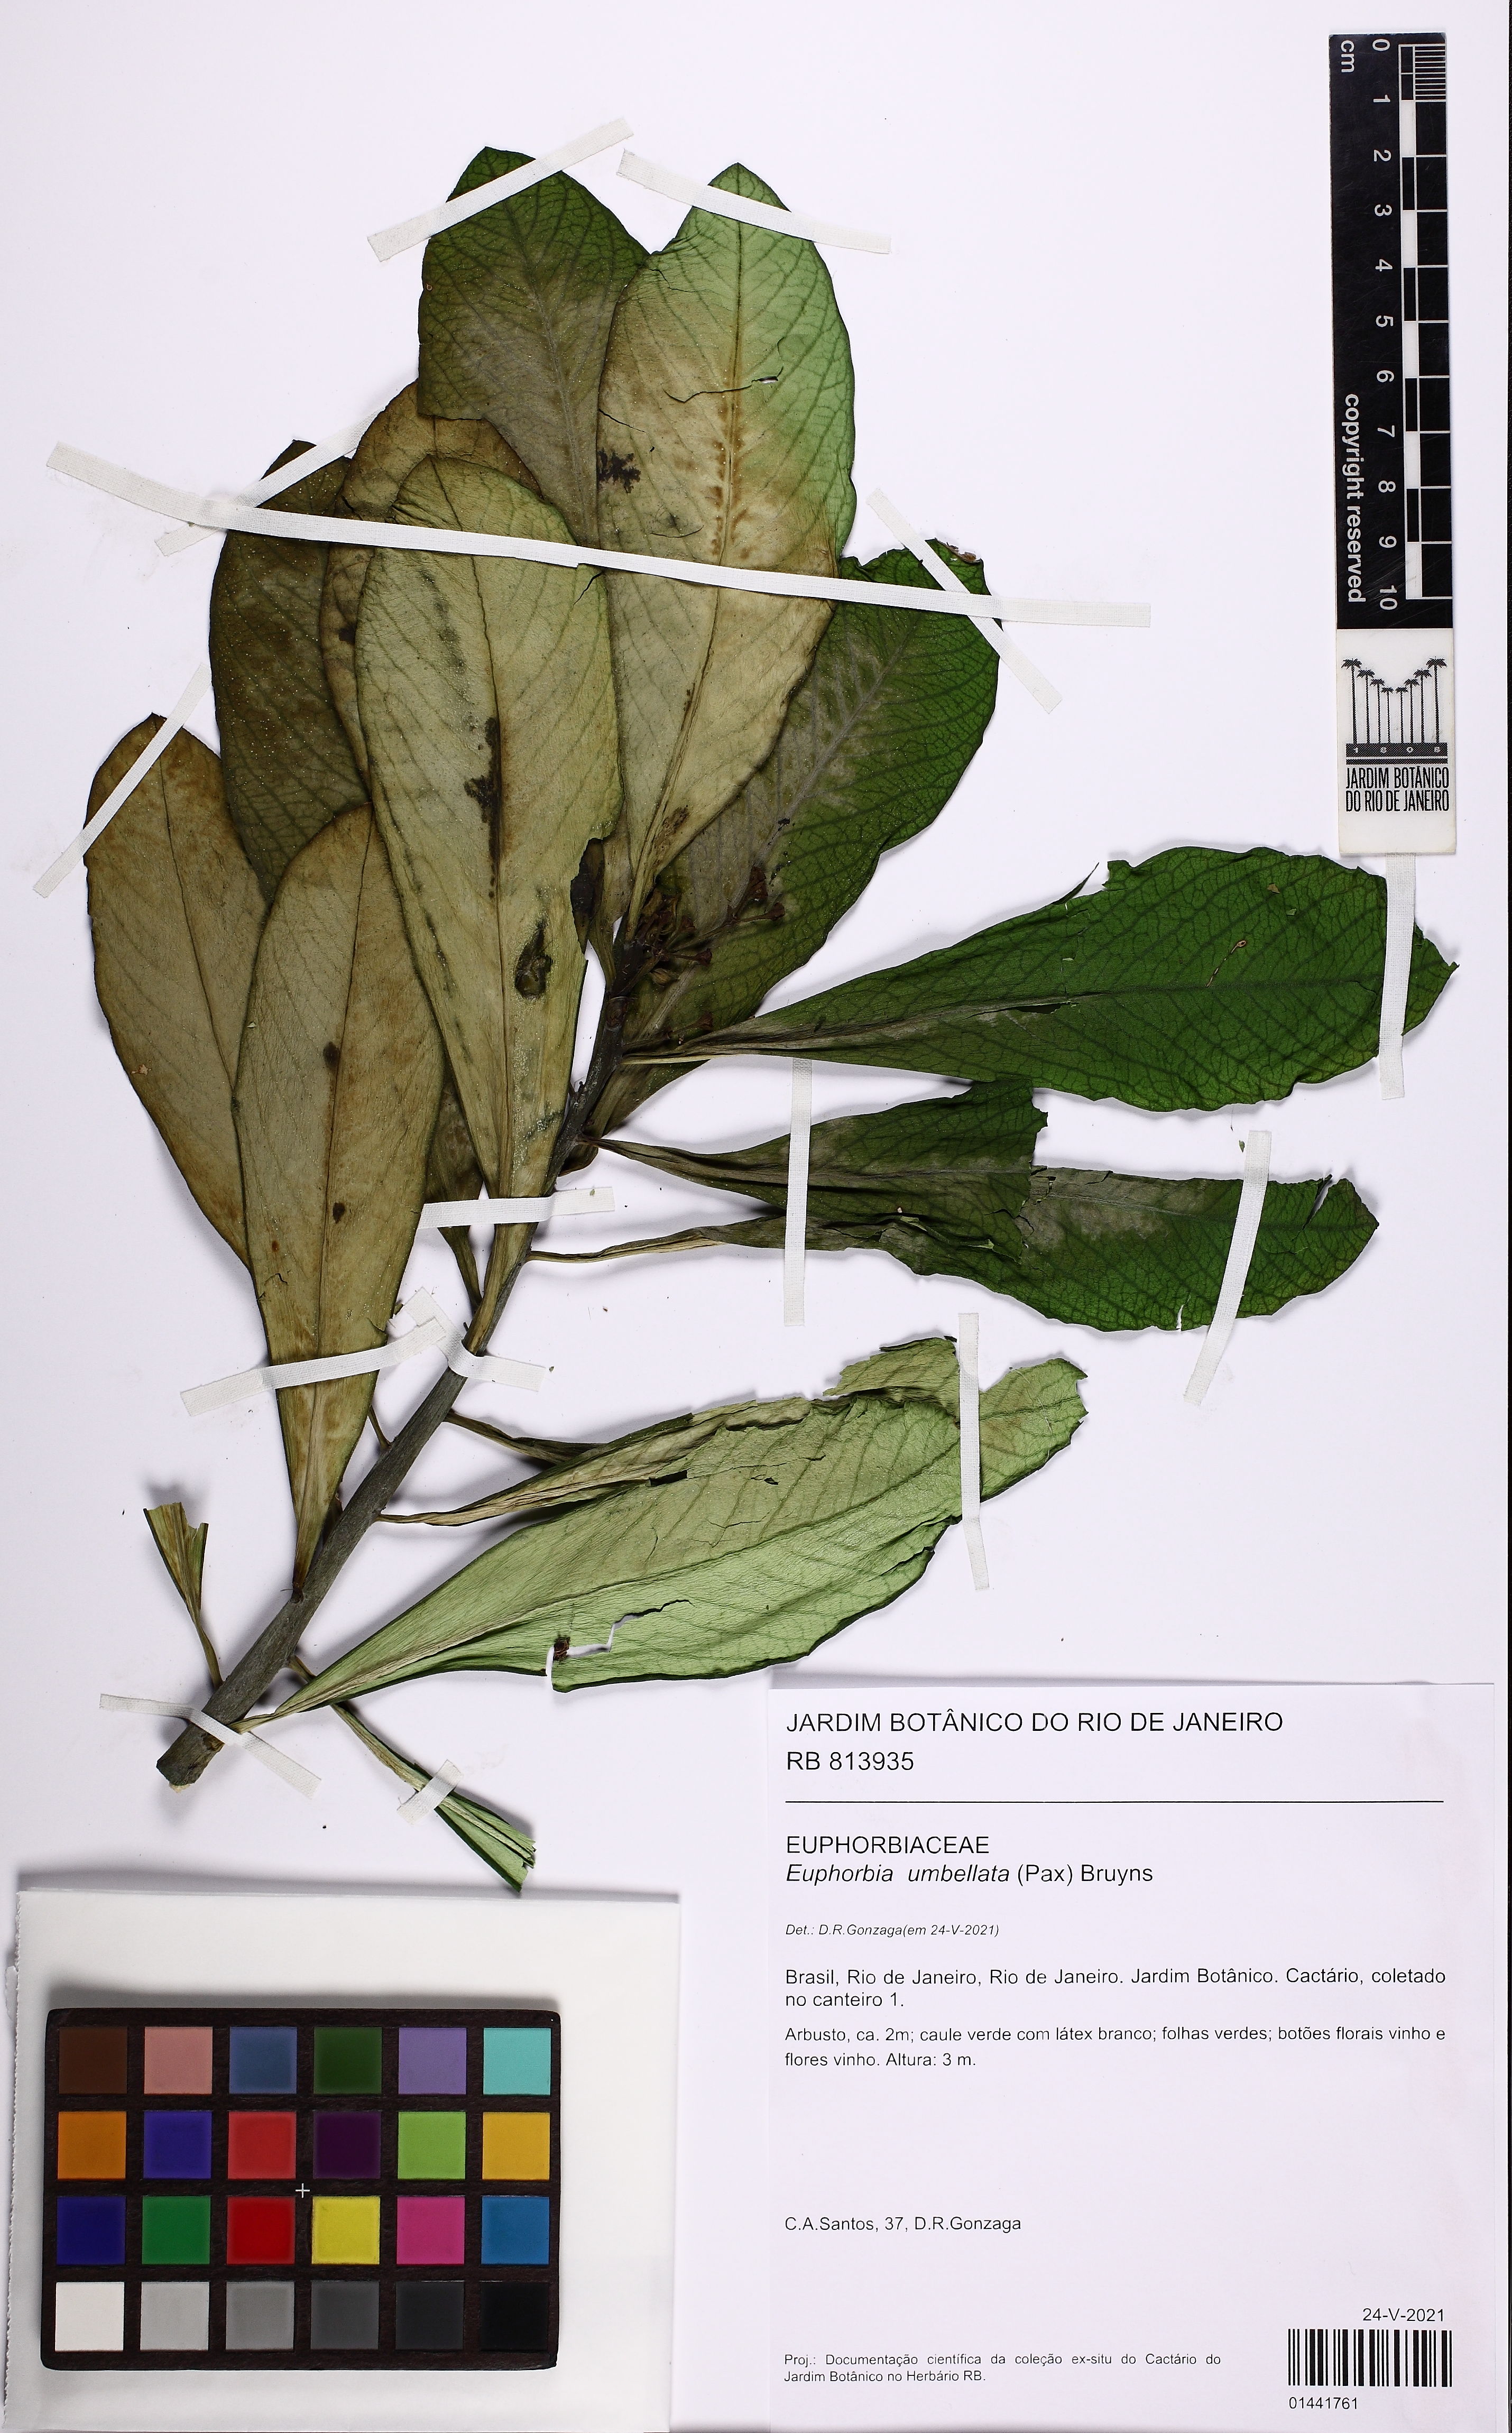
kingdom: Plantae
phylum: Tracheophyta
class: Magnoliopsida
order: Malpighiales
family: Euphorbiaceae
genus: Euphorbia
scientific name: Euphorbia umbellata
